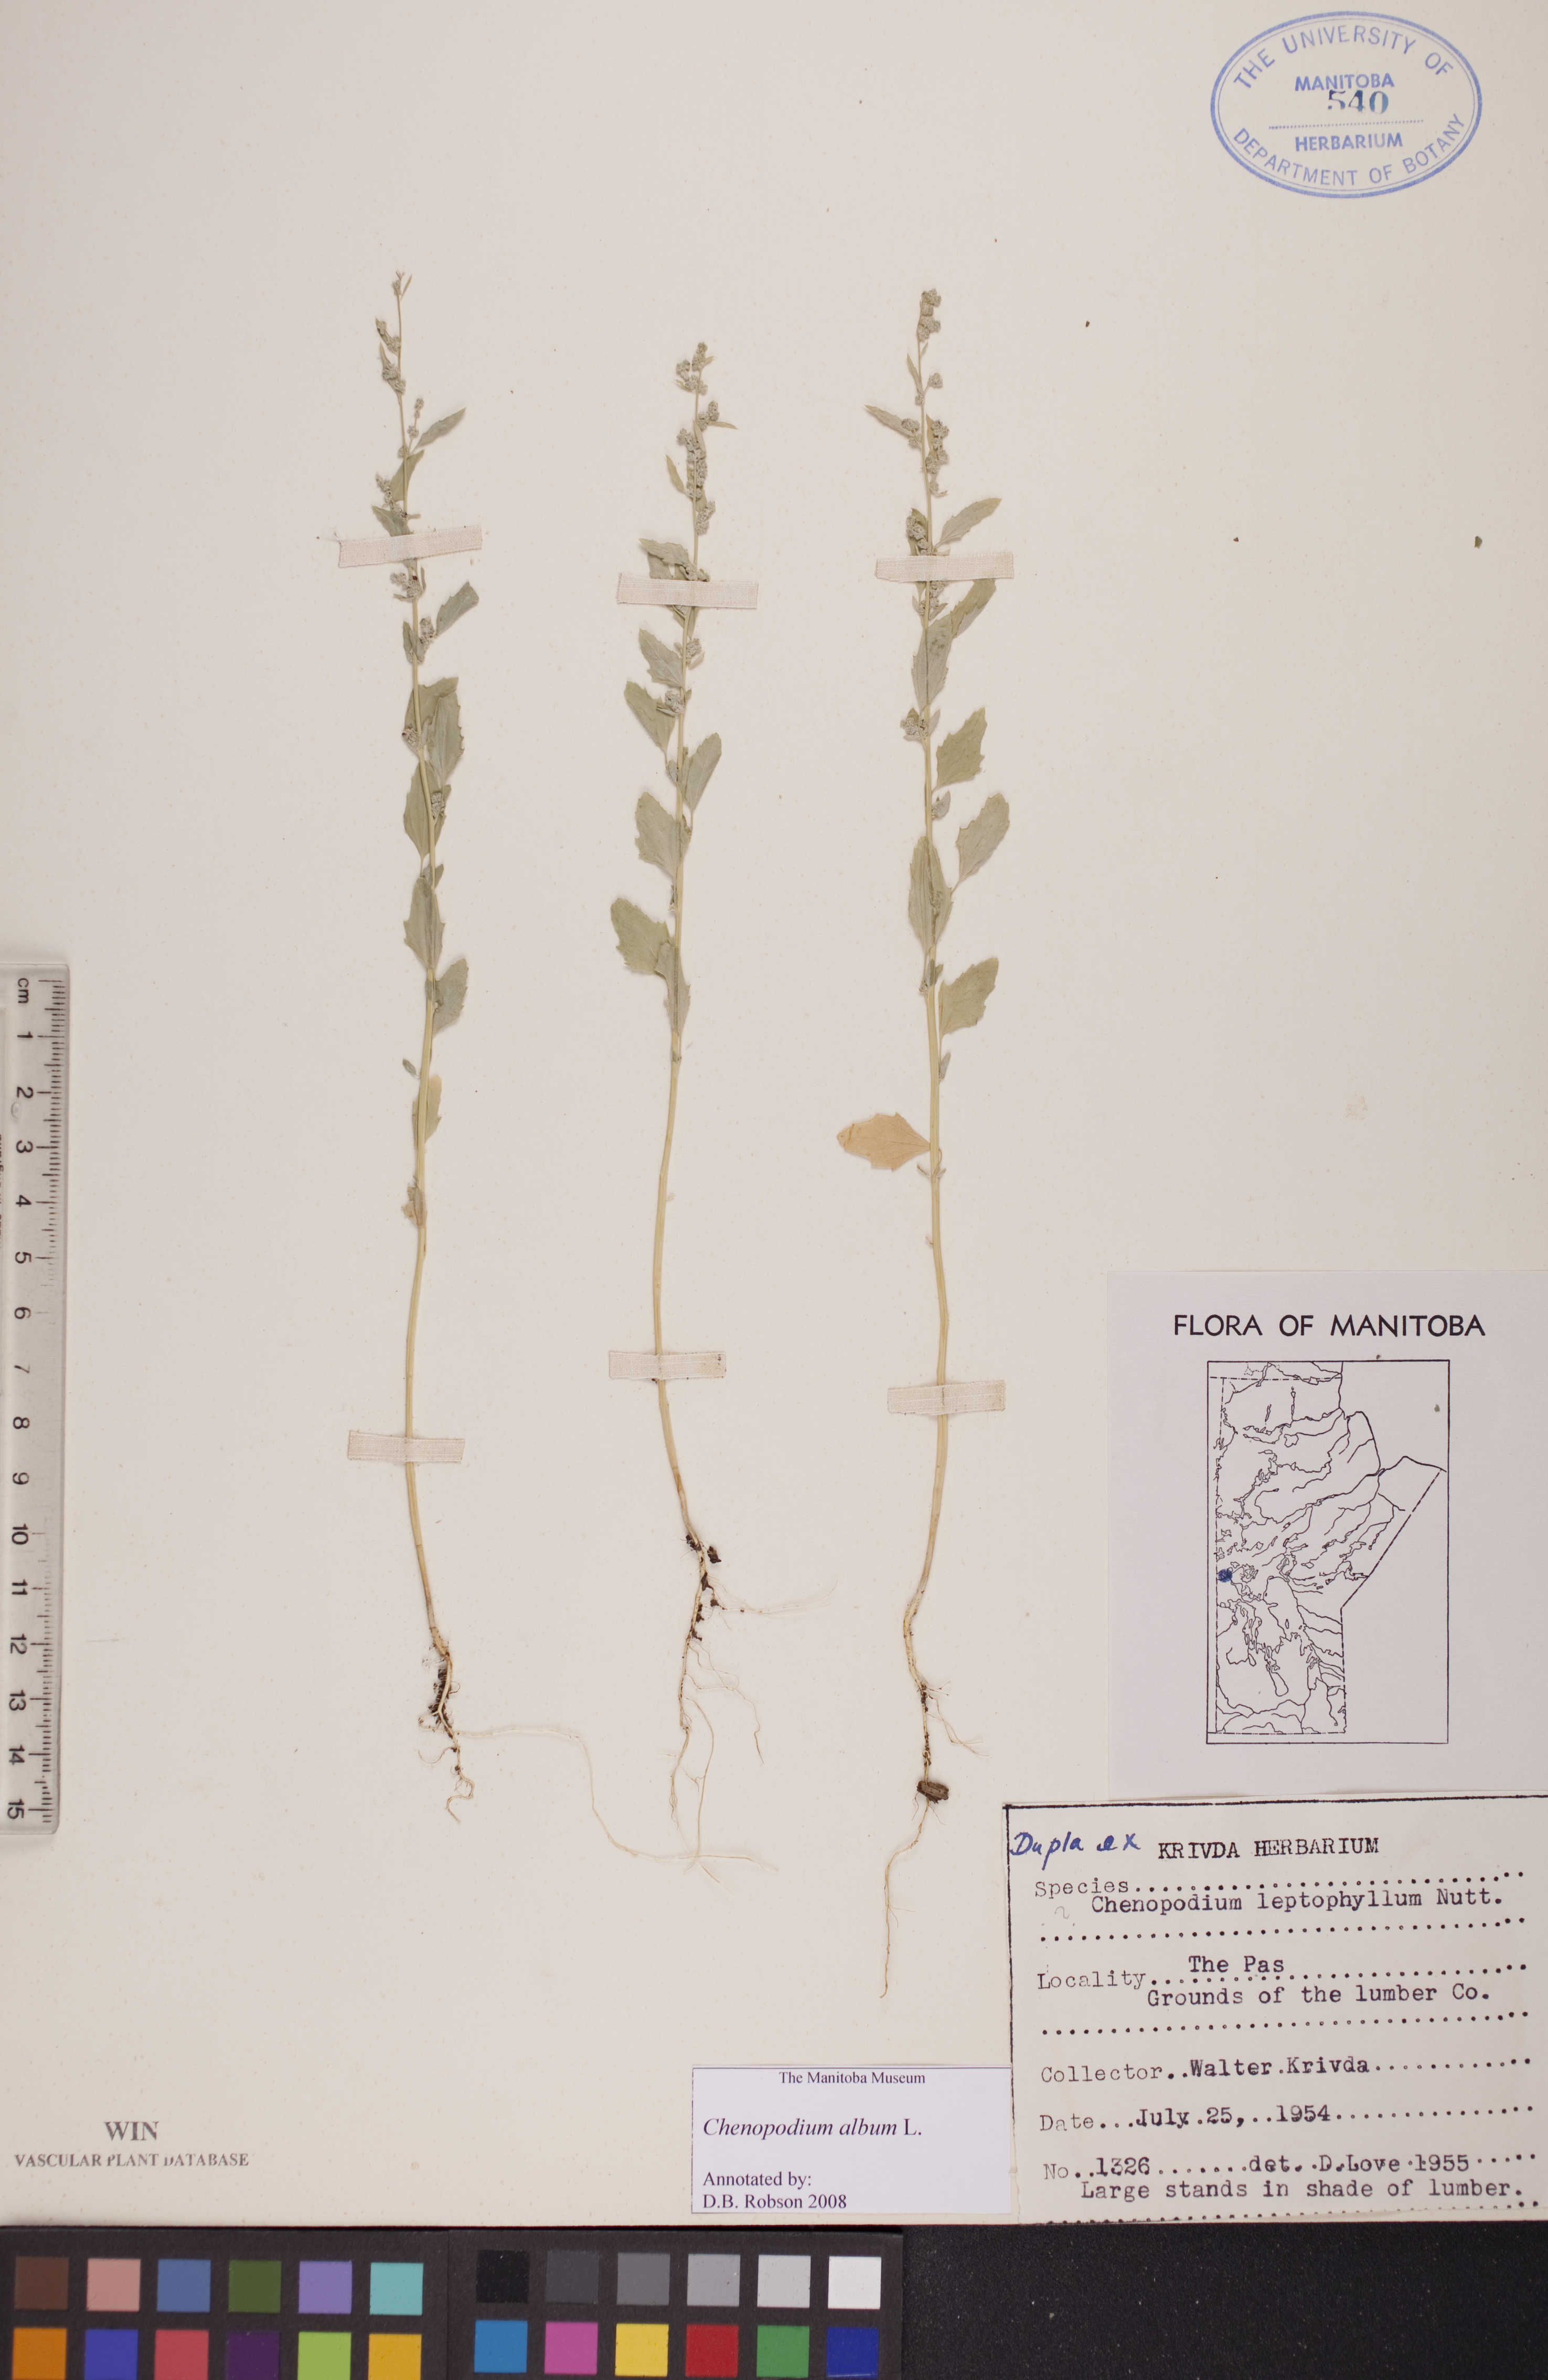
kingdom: Plantae
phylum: Tracheophyta
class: Magnoliopsida
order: Caryophyllales
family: Amaranthaceae
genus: Chenopodium
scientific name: Chenopodium album
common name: Fat-hen
